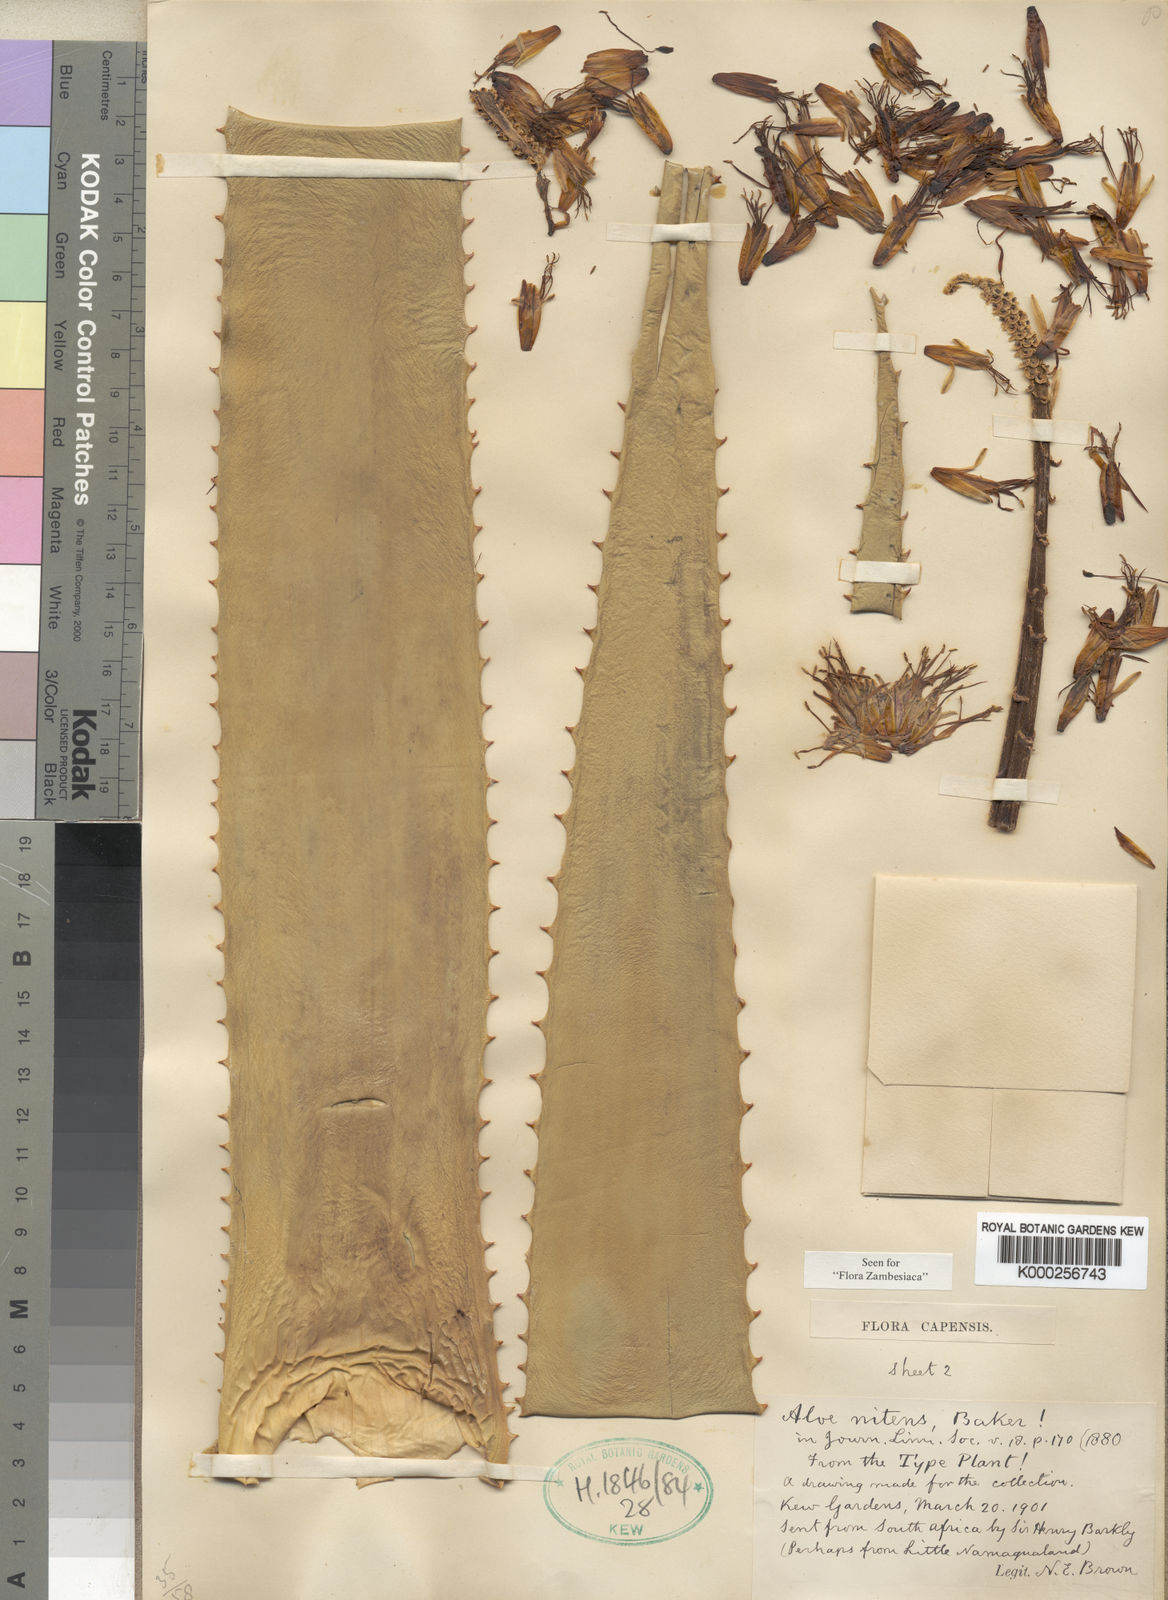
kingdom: Plantae
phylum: Tracheophyta
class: Liliopsida
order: Asparagales
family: Asphodelaceae
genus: Aloe
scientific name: Aloe rupestris
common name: Bottle-brush aloe
